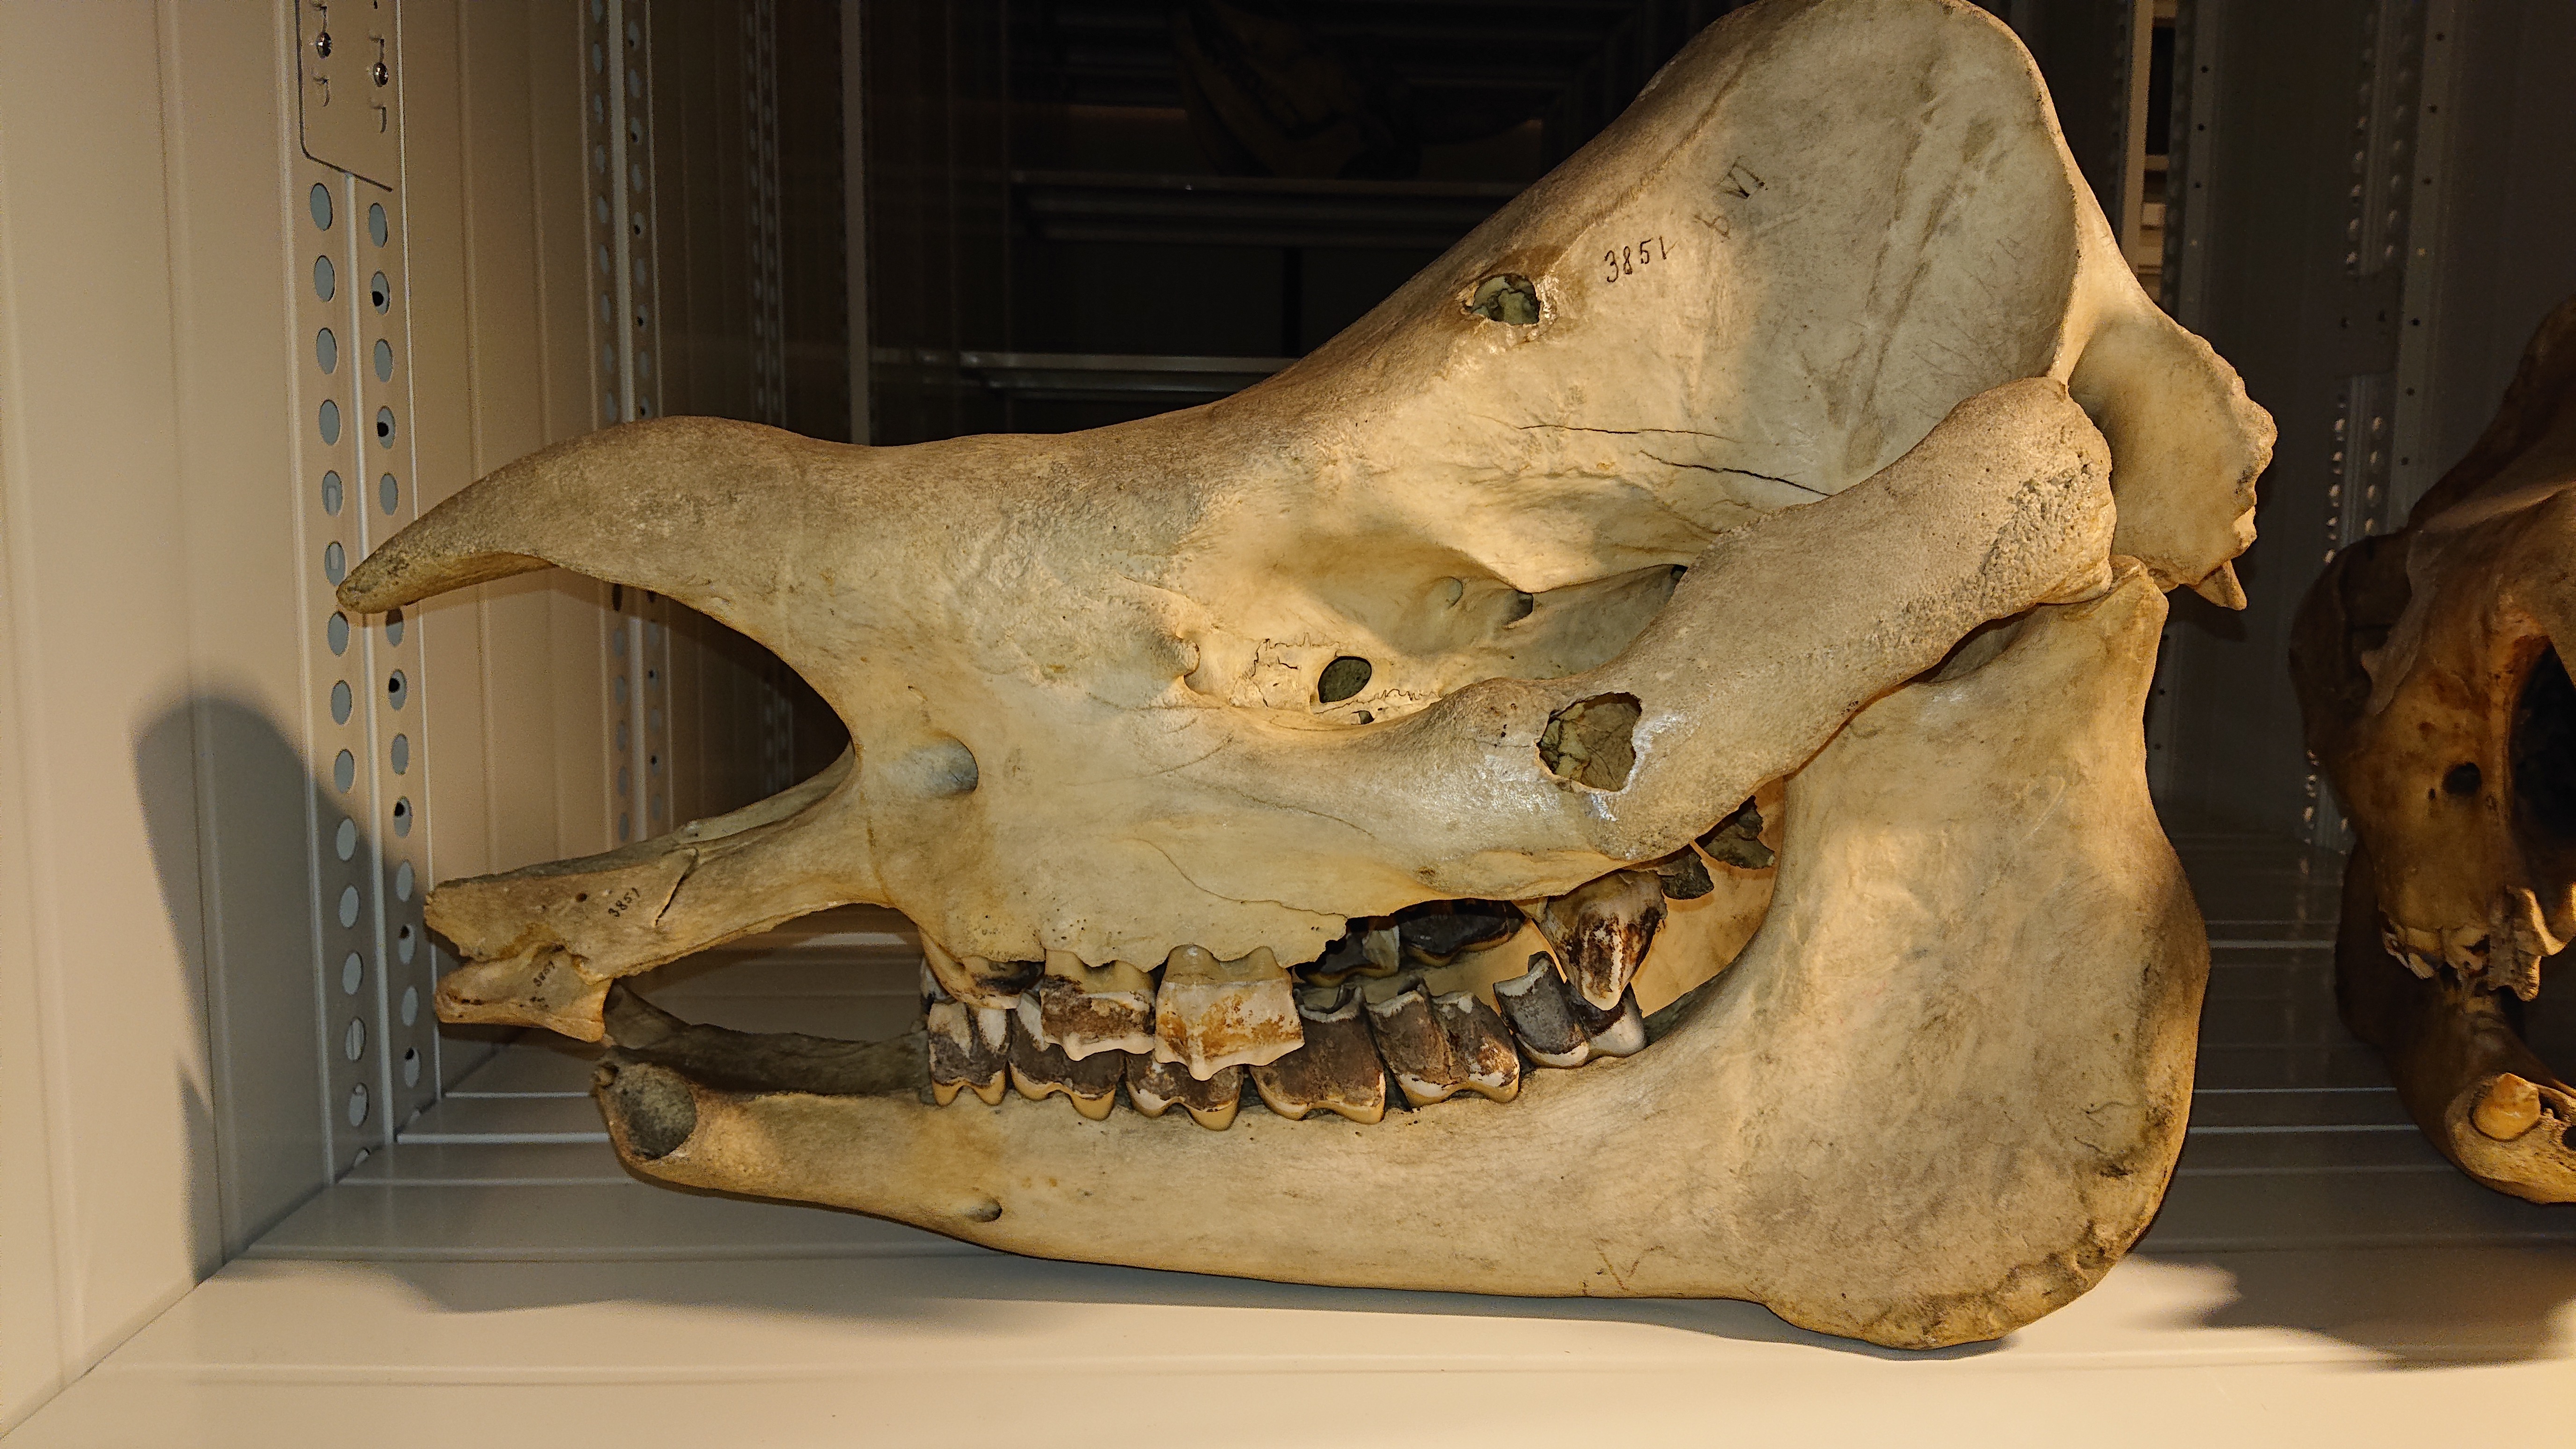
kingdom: Animalia
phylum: Chordata
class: Mammalia
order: Perissodactyla
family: Rhinocerotidae
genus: Rhinoceros
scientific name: Rhinoceros sondaicus
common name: Javan rhinoceros
